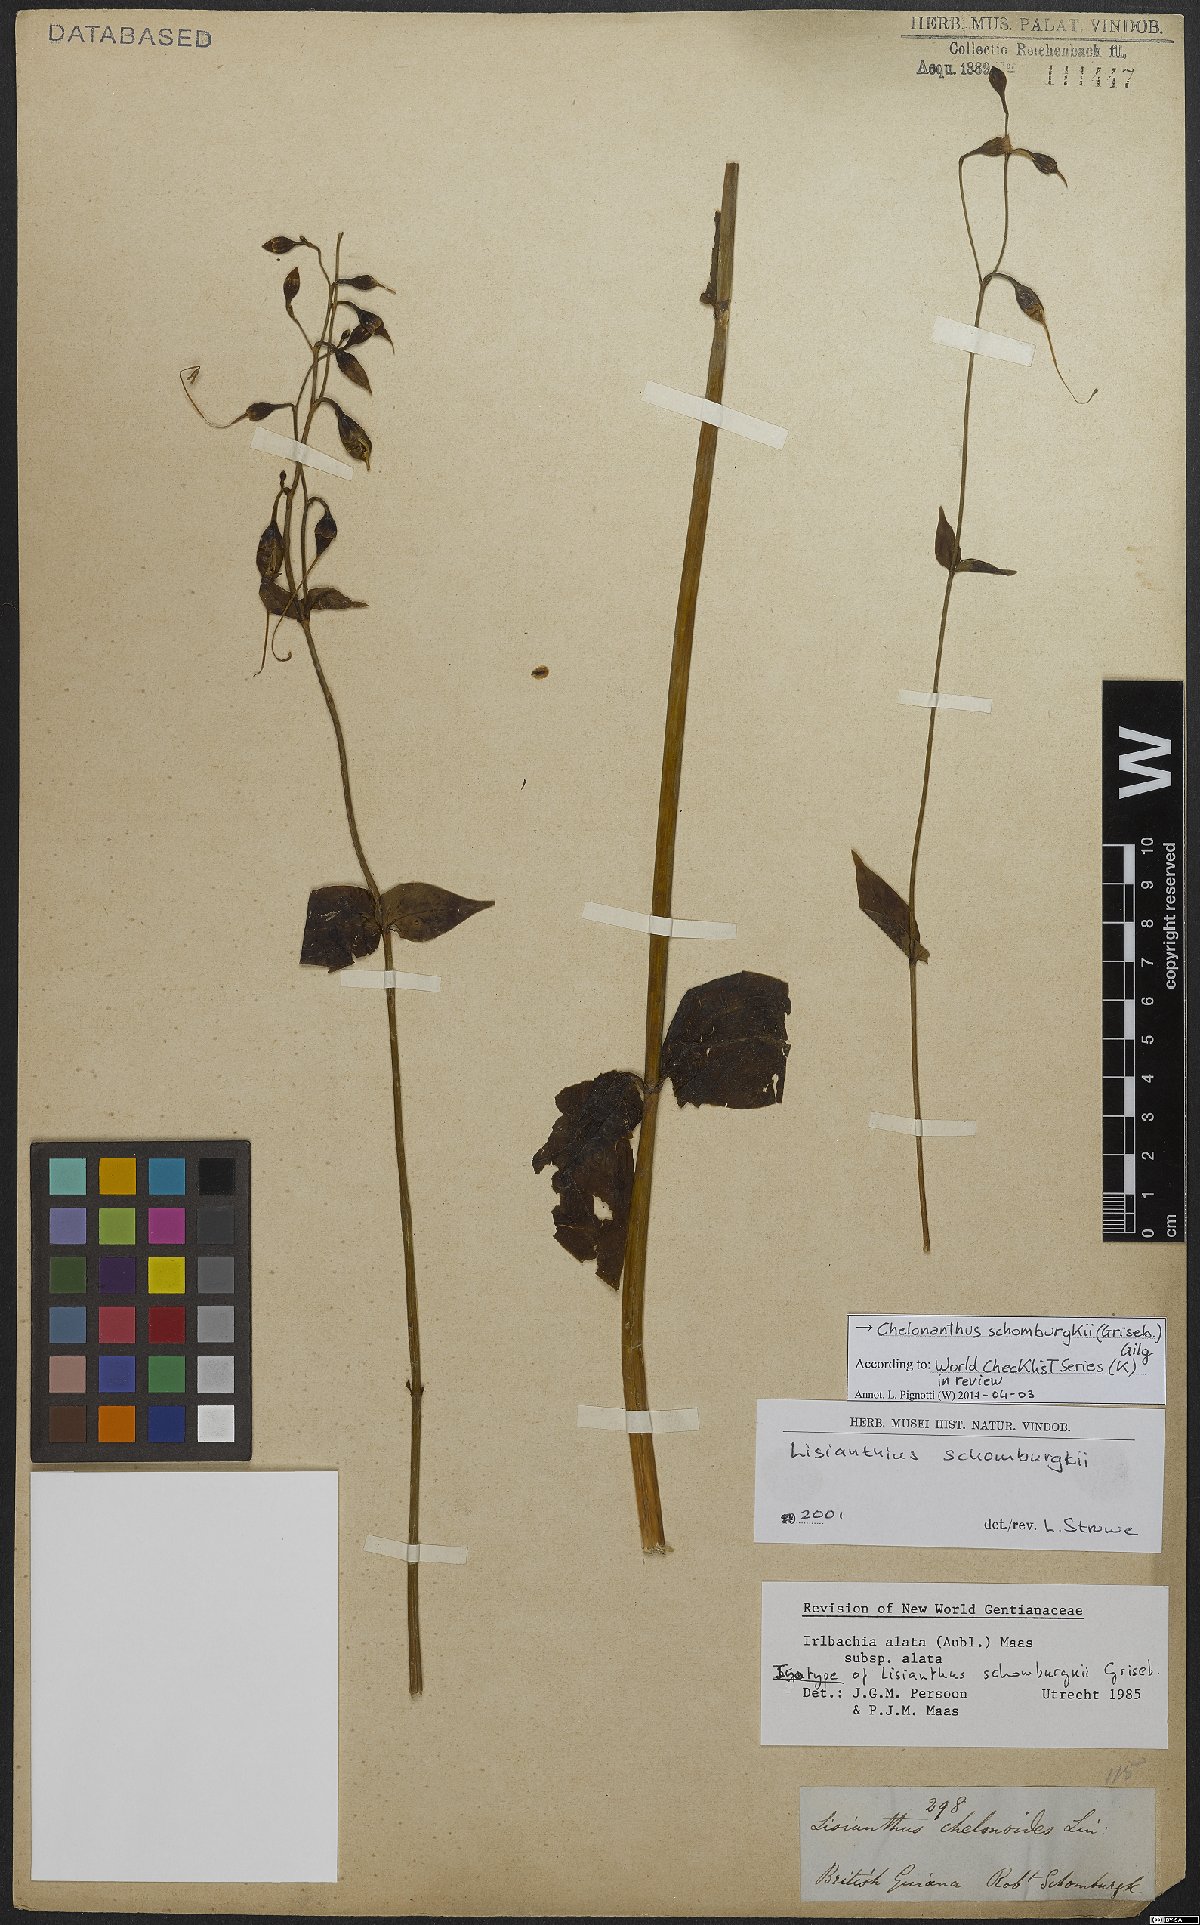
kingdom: Plantae
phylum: Tracheophyta
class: Magnoliopsida
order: Gentianales
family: Gentianaceae
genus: Chelonanthus
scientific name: Chelonanthus grandiflorus
